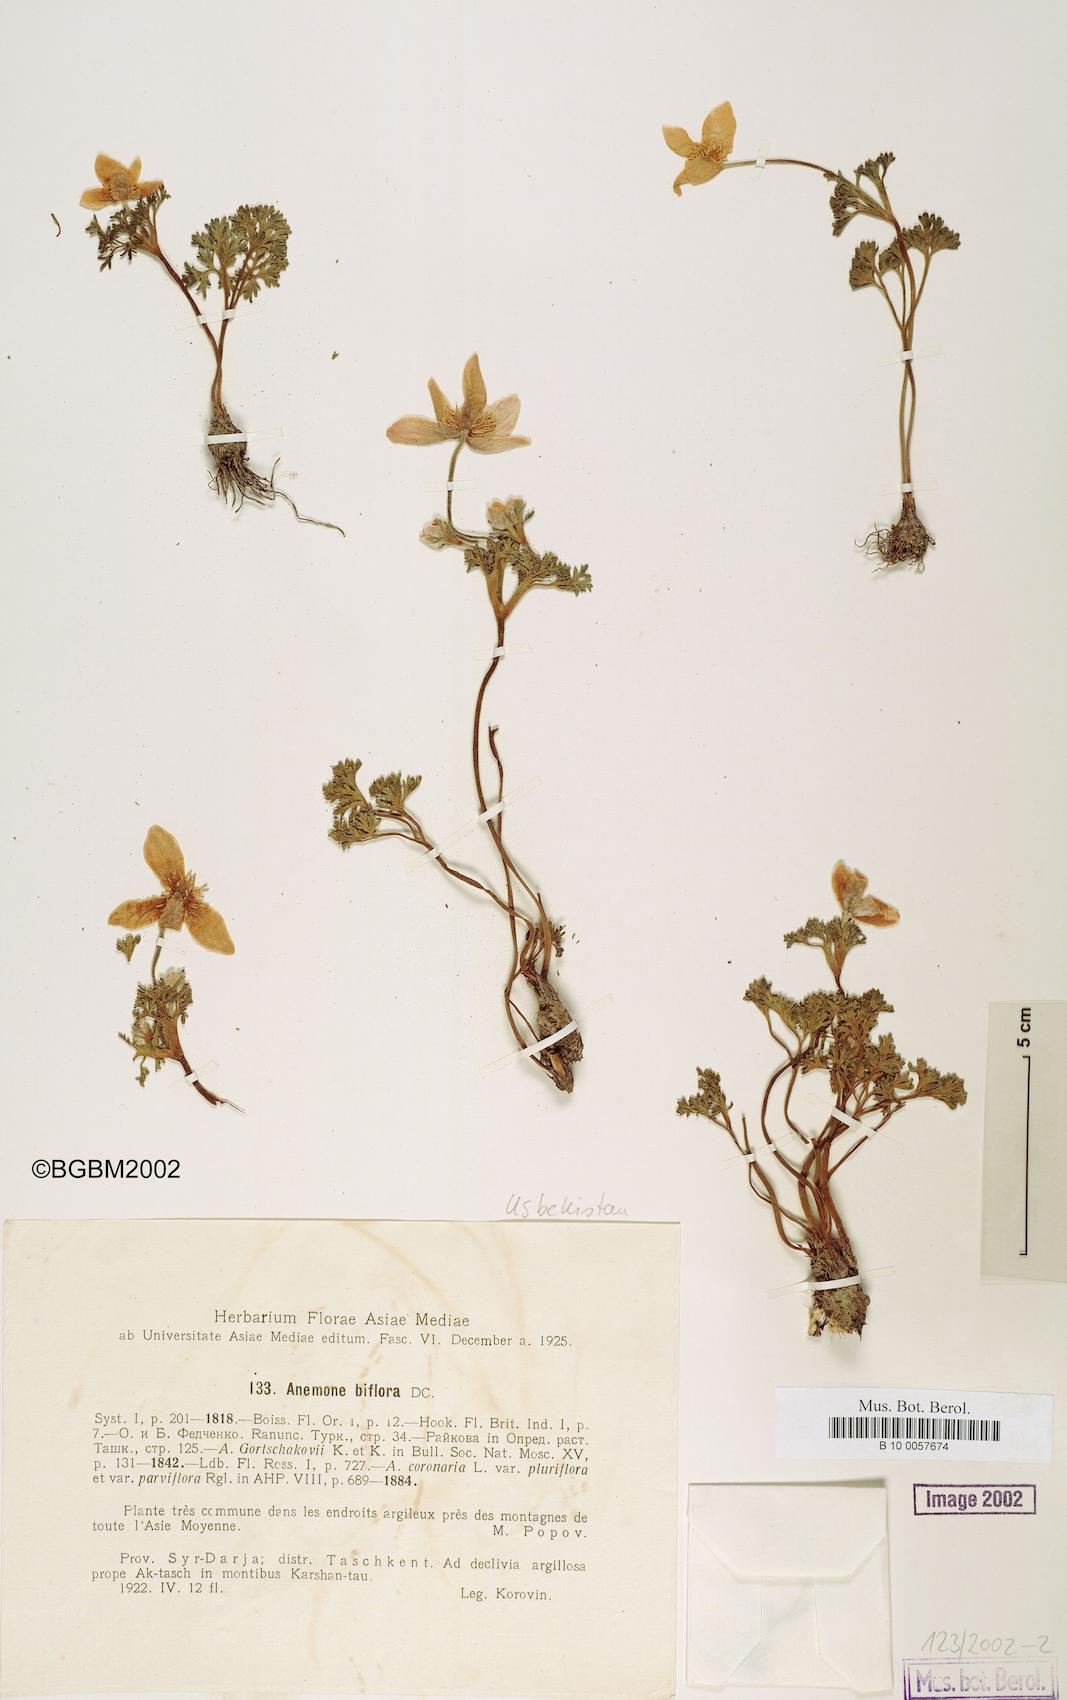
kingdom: Plantae
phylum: Tracheophyta
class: Magnoliopsida
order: Ranunculales
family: Ranunculaceae
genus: Anemone
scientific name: Anemone biflora
